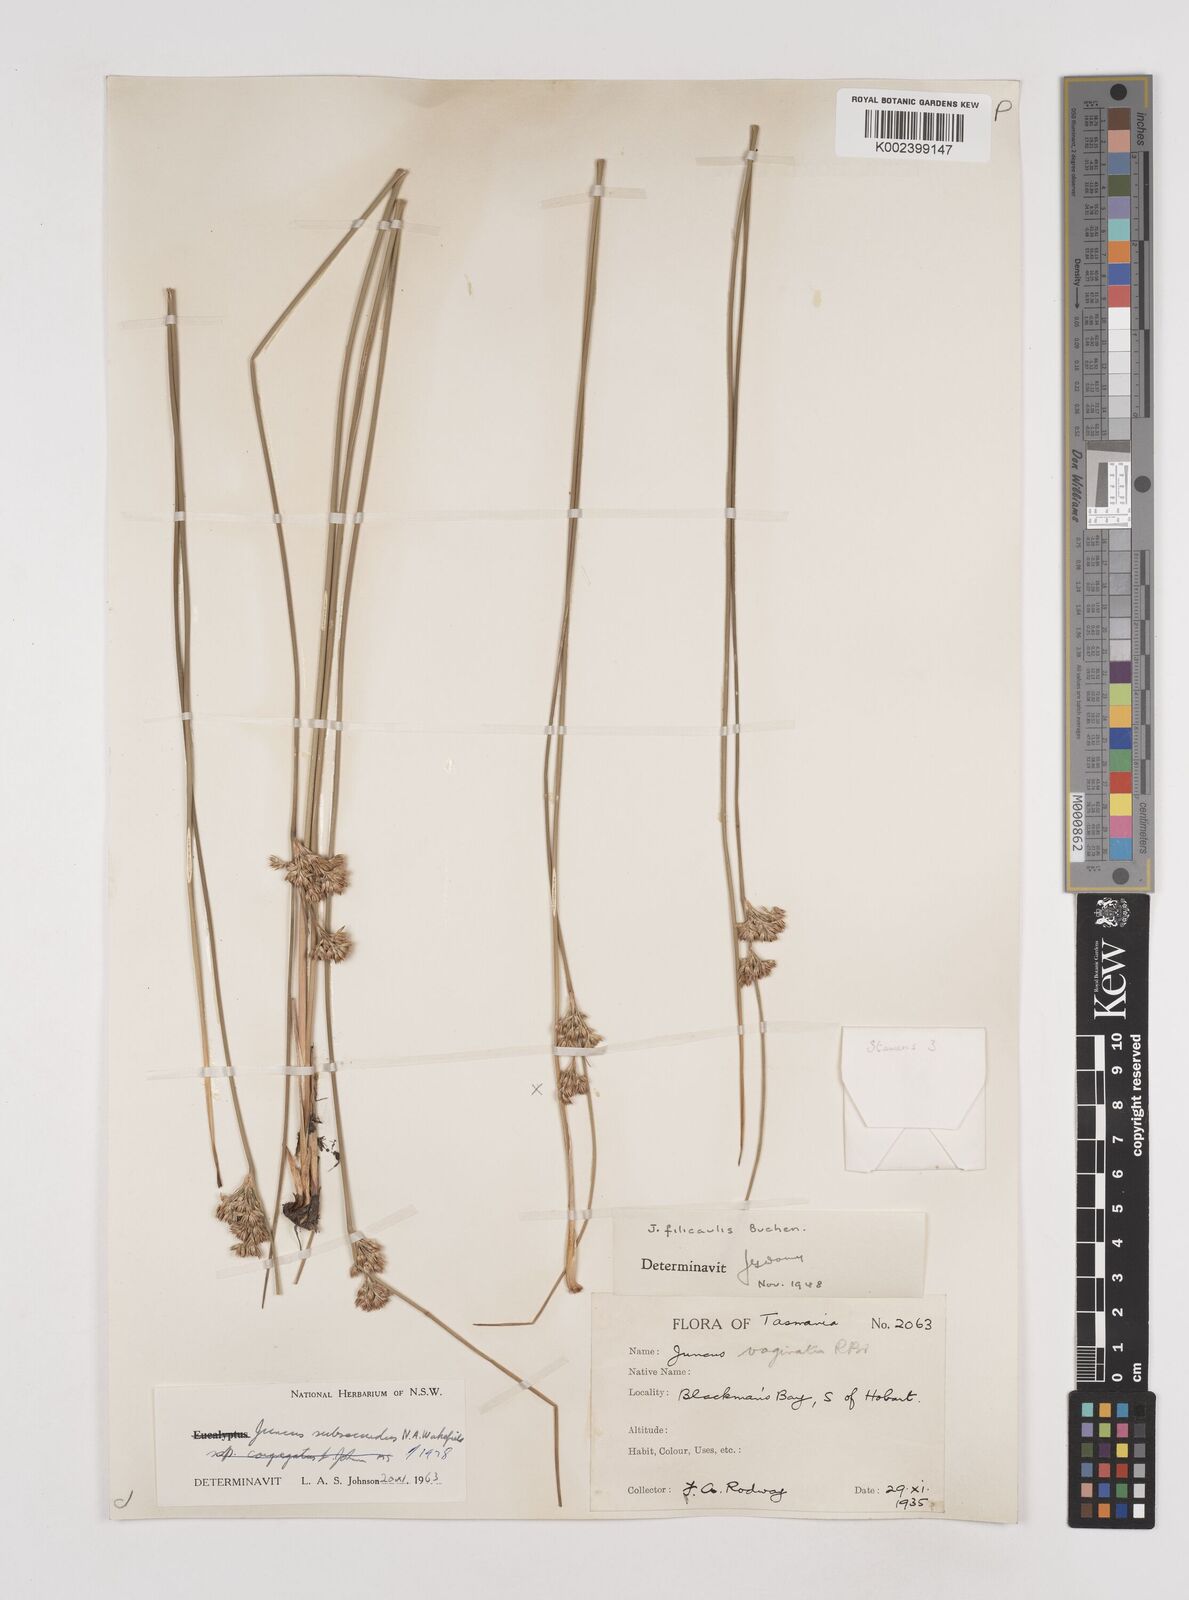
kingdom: Plantae
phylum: Tracheophyta
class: Liliopsida
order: Poales
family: Juncaceae
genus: Juncus
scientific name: Juncus subsecundus
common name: Fingered rush
